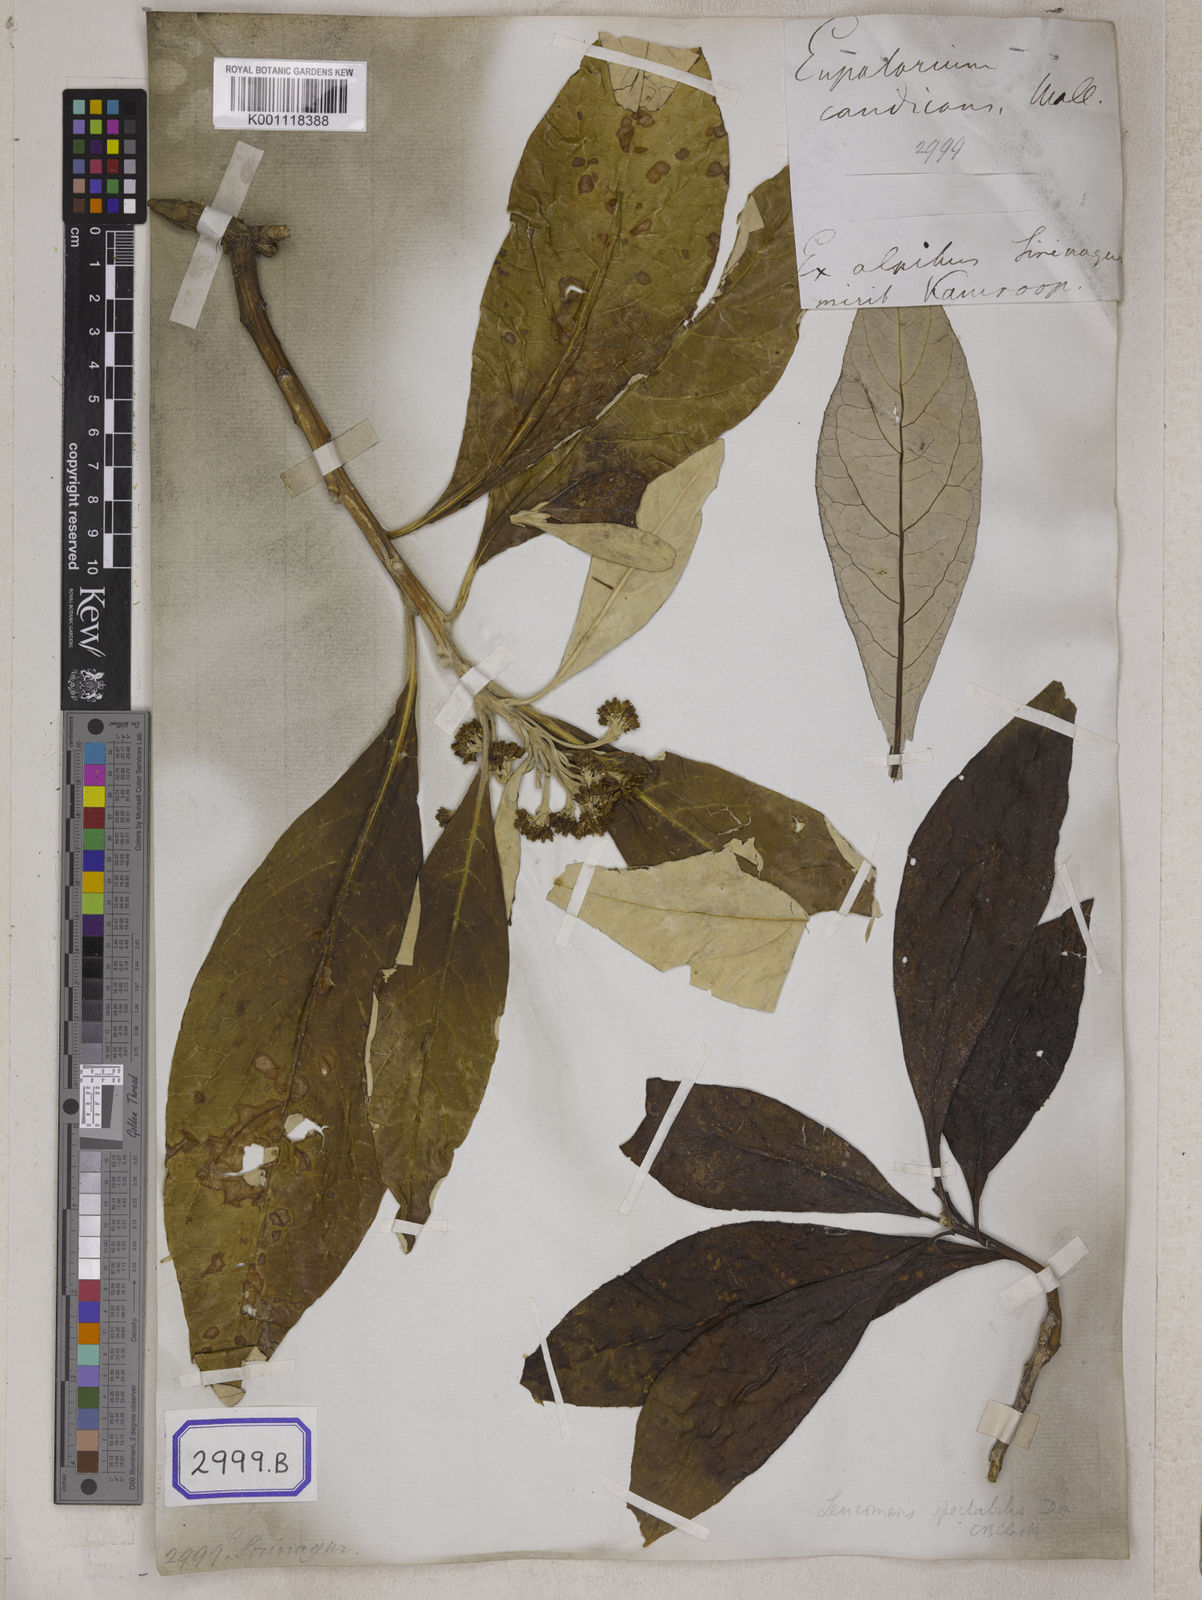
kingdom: Plantae
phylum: Tracheophyta
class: Magnoliopsida
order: Asterales
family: Asteraceae
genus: Erigeron
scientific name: Erigeron Conyza candicans
